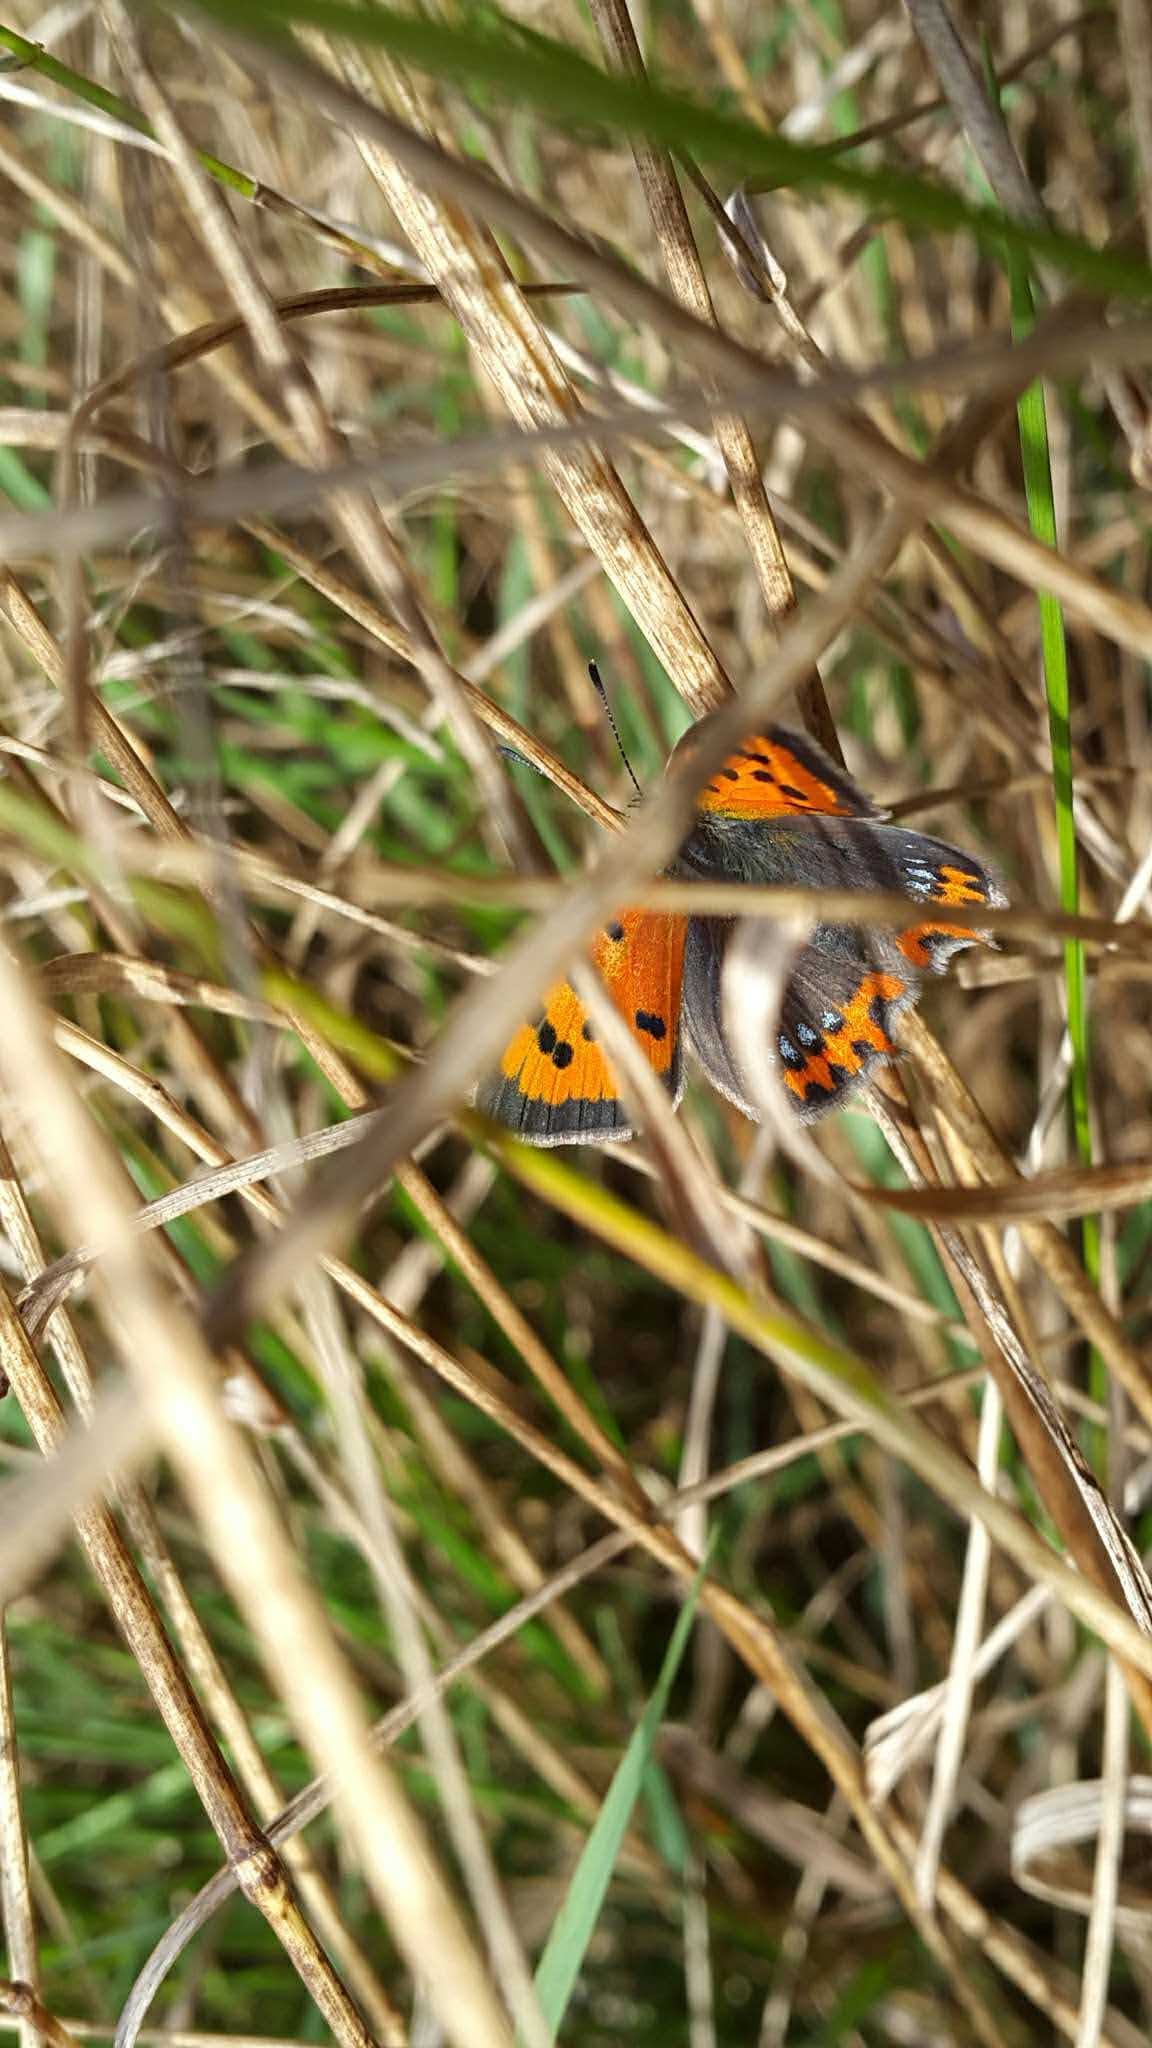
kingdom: Animalia
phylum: Arthropoda
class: Insecta
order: Lepidoptera
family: Lycaenidae
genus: Lycaena
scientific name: Lycaena phlaeas
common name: Lille ildfugl
